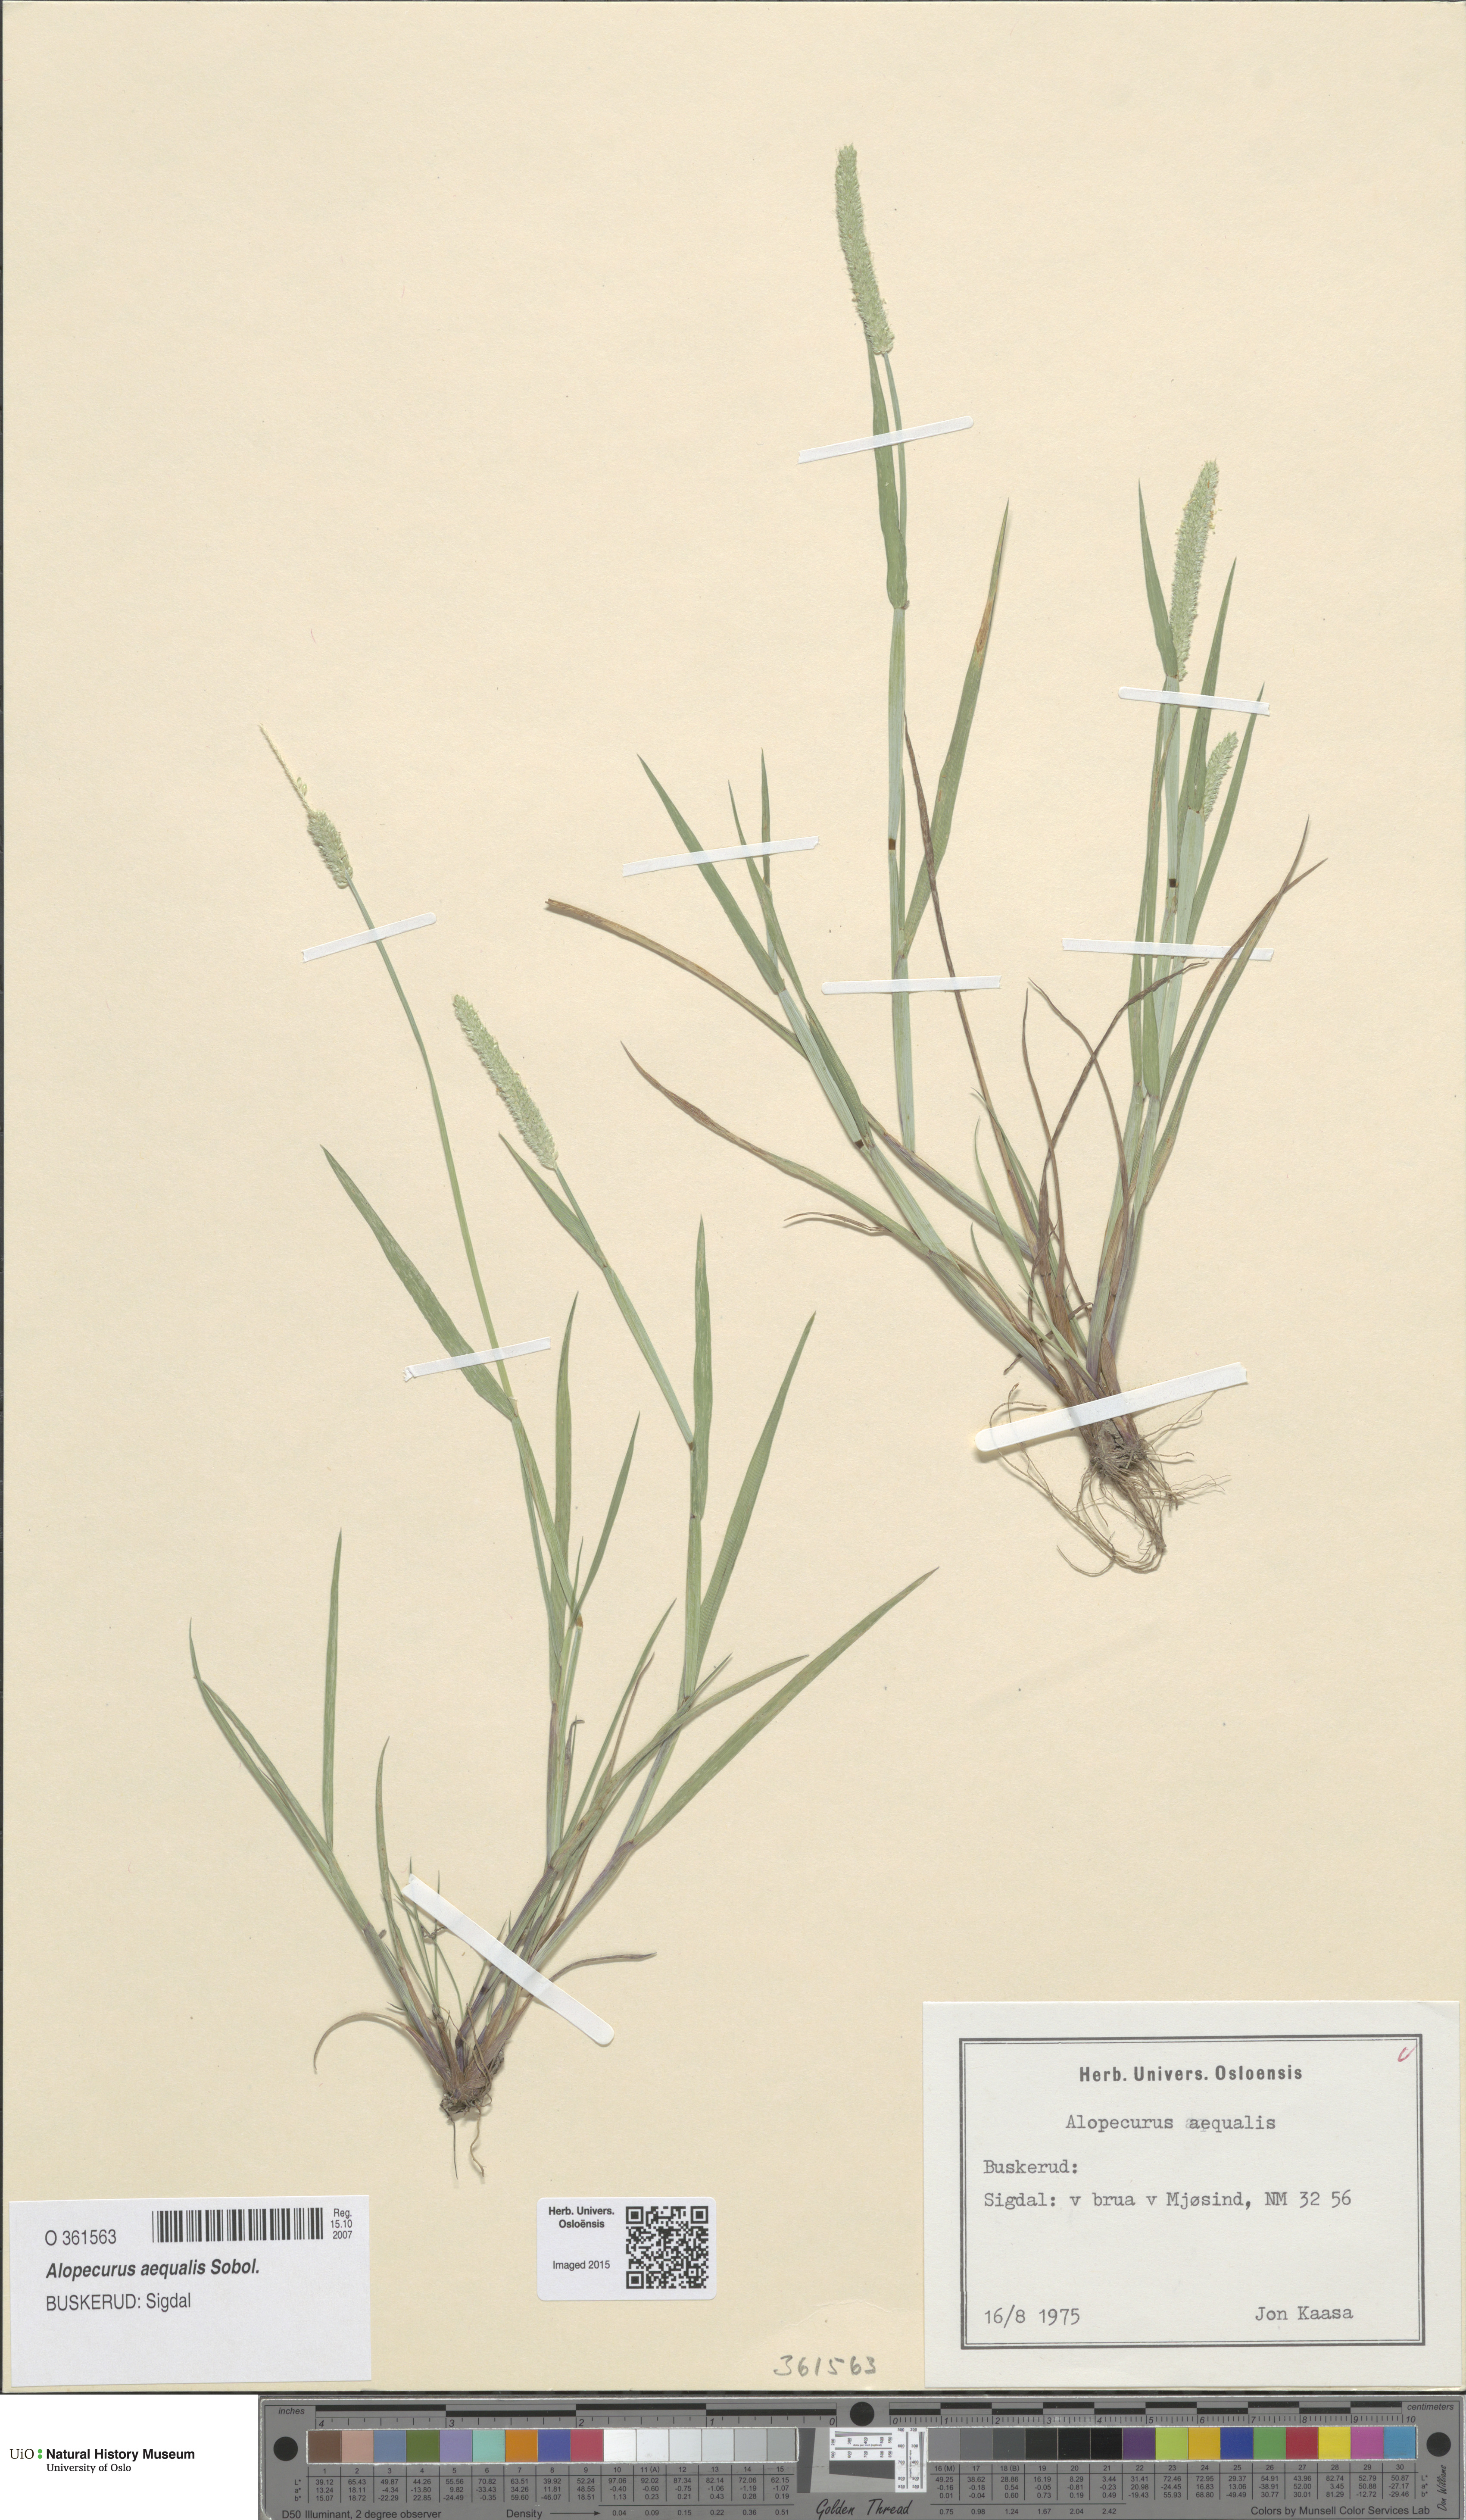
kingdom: Plantae
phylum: Tracheophyta
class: Liliopsida
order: Poales
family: Poaceae
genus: Alopecurus
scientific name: Alopecurus aequalis
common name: Orange foxtail
